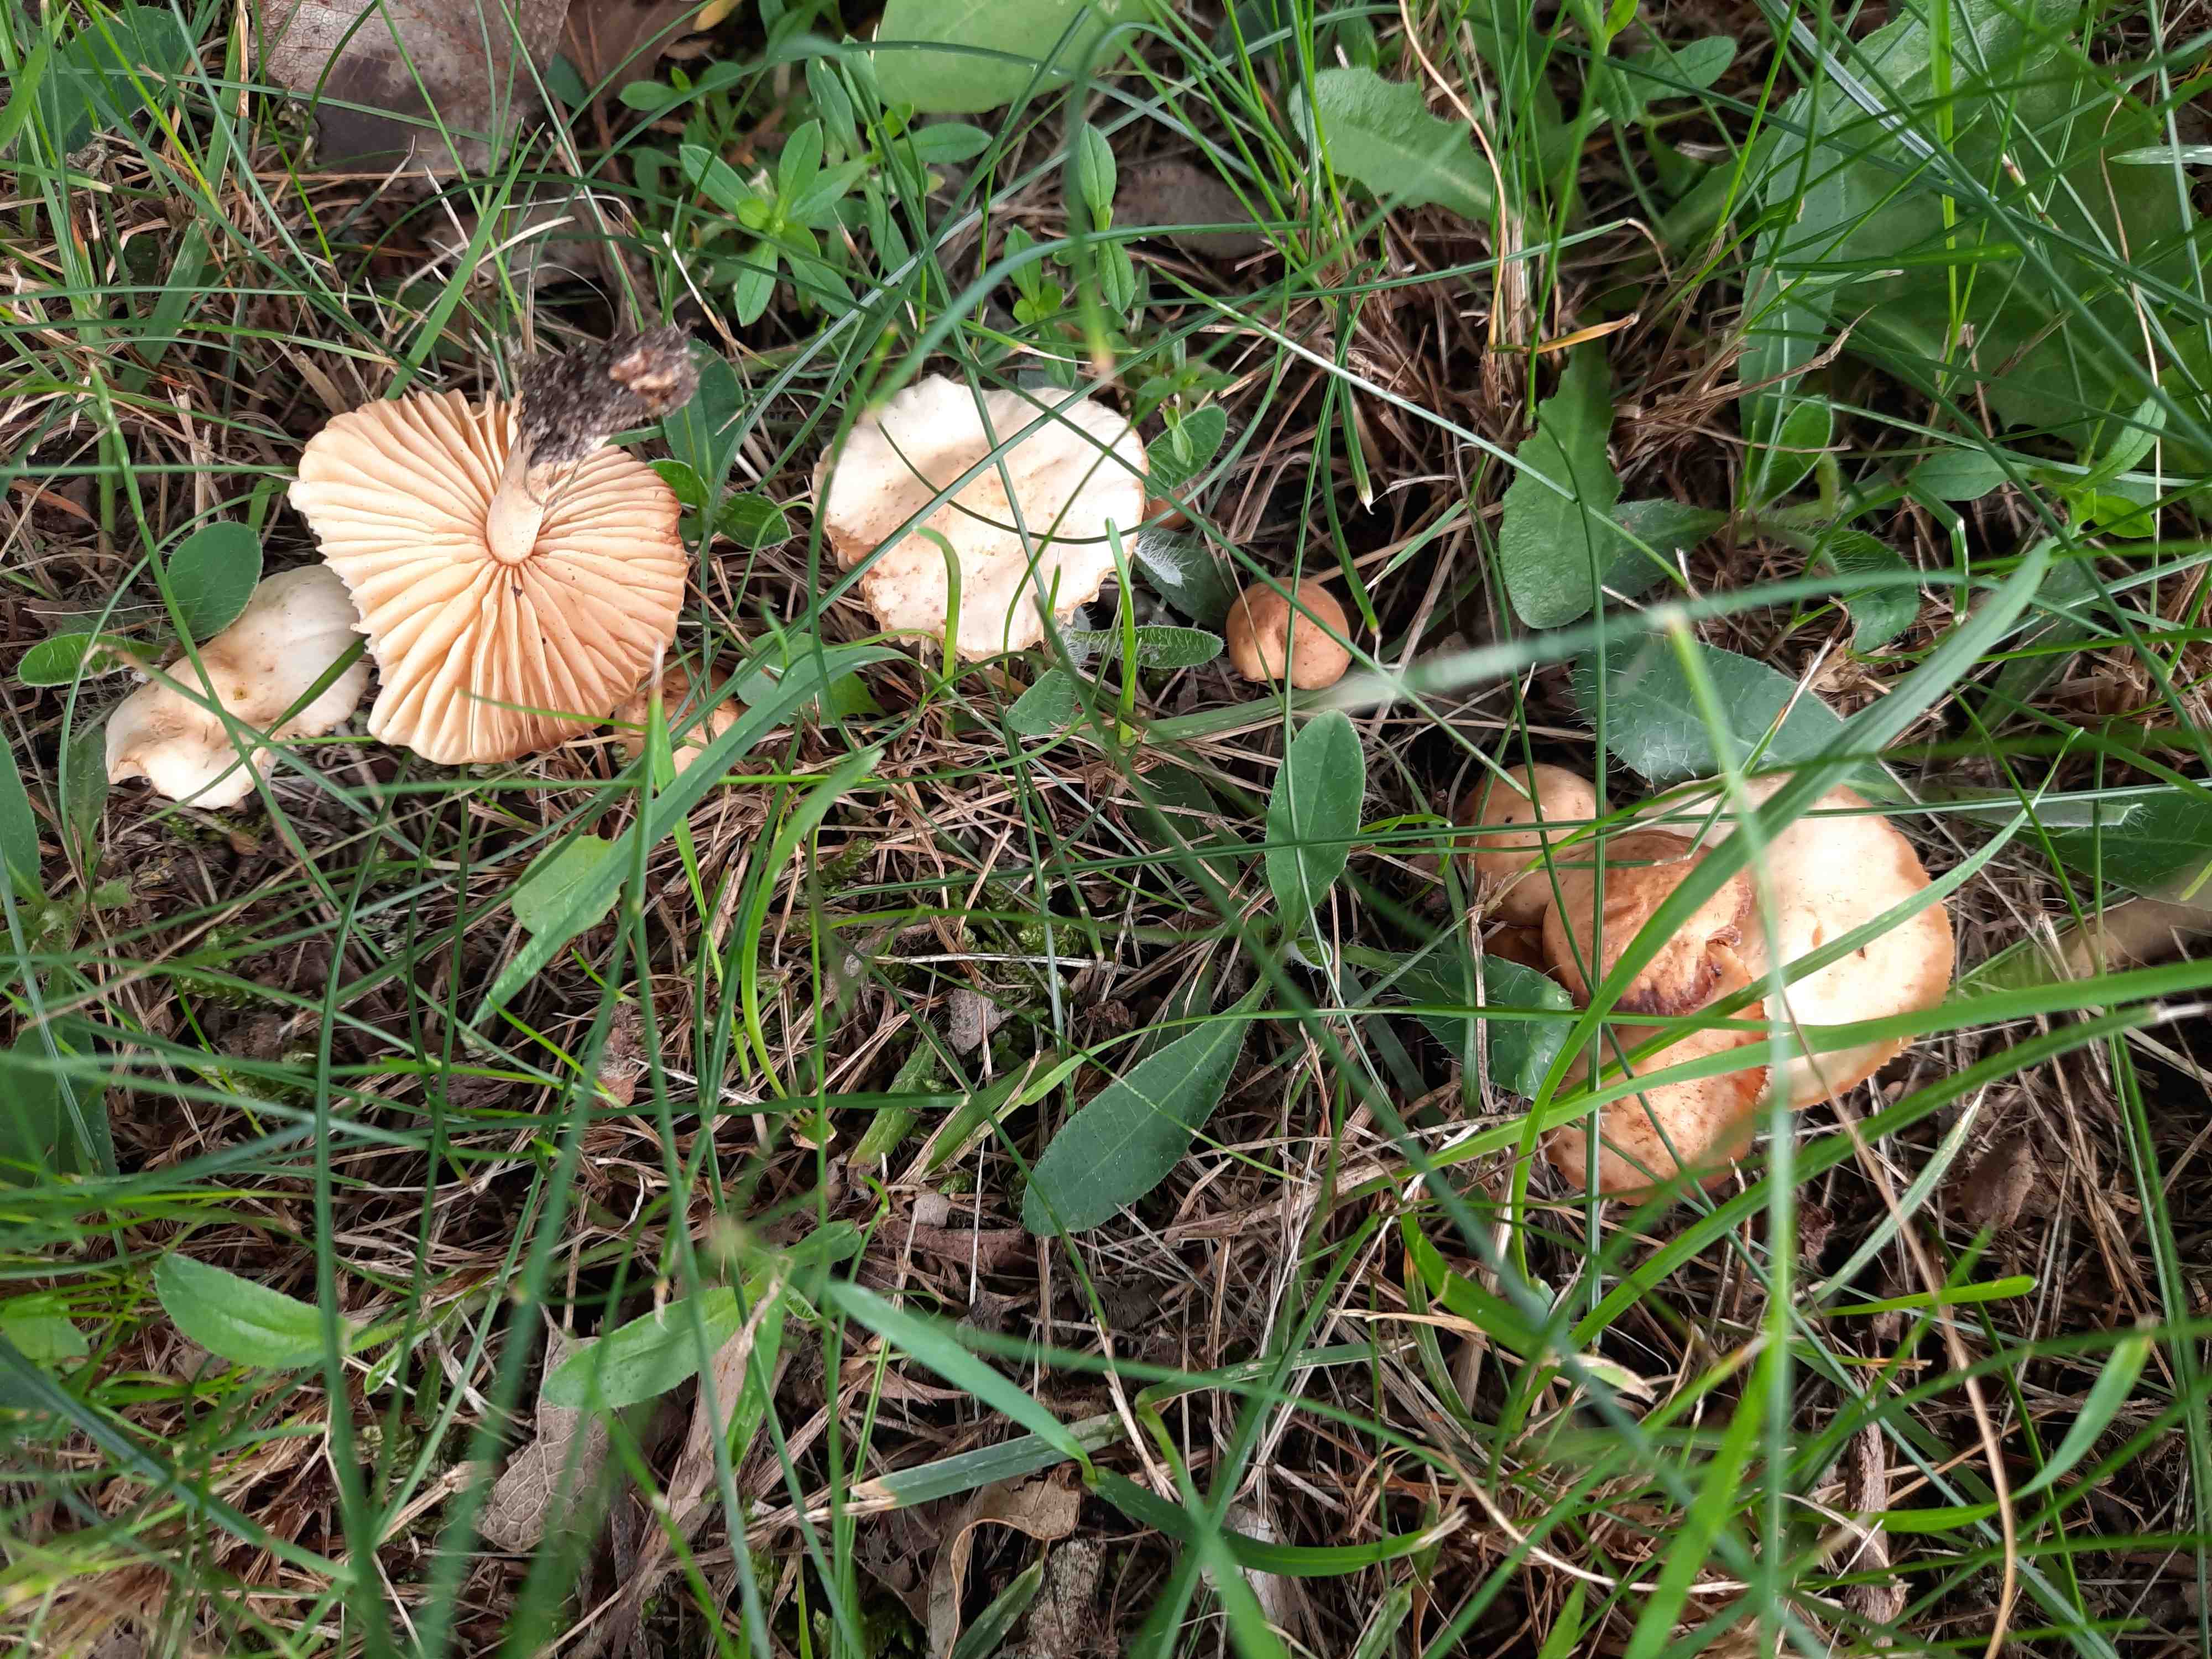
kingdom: Fungi
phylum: Basidiomycota
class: Agaricomycetes
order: Agaricales
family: Marasmiaceae
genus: Marasmius
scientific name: Marasmius oreades
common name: elledans-bruskhat
